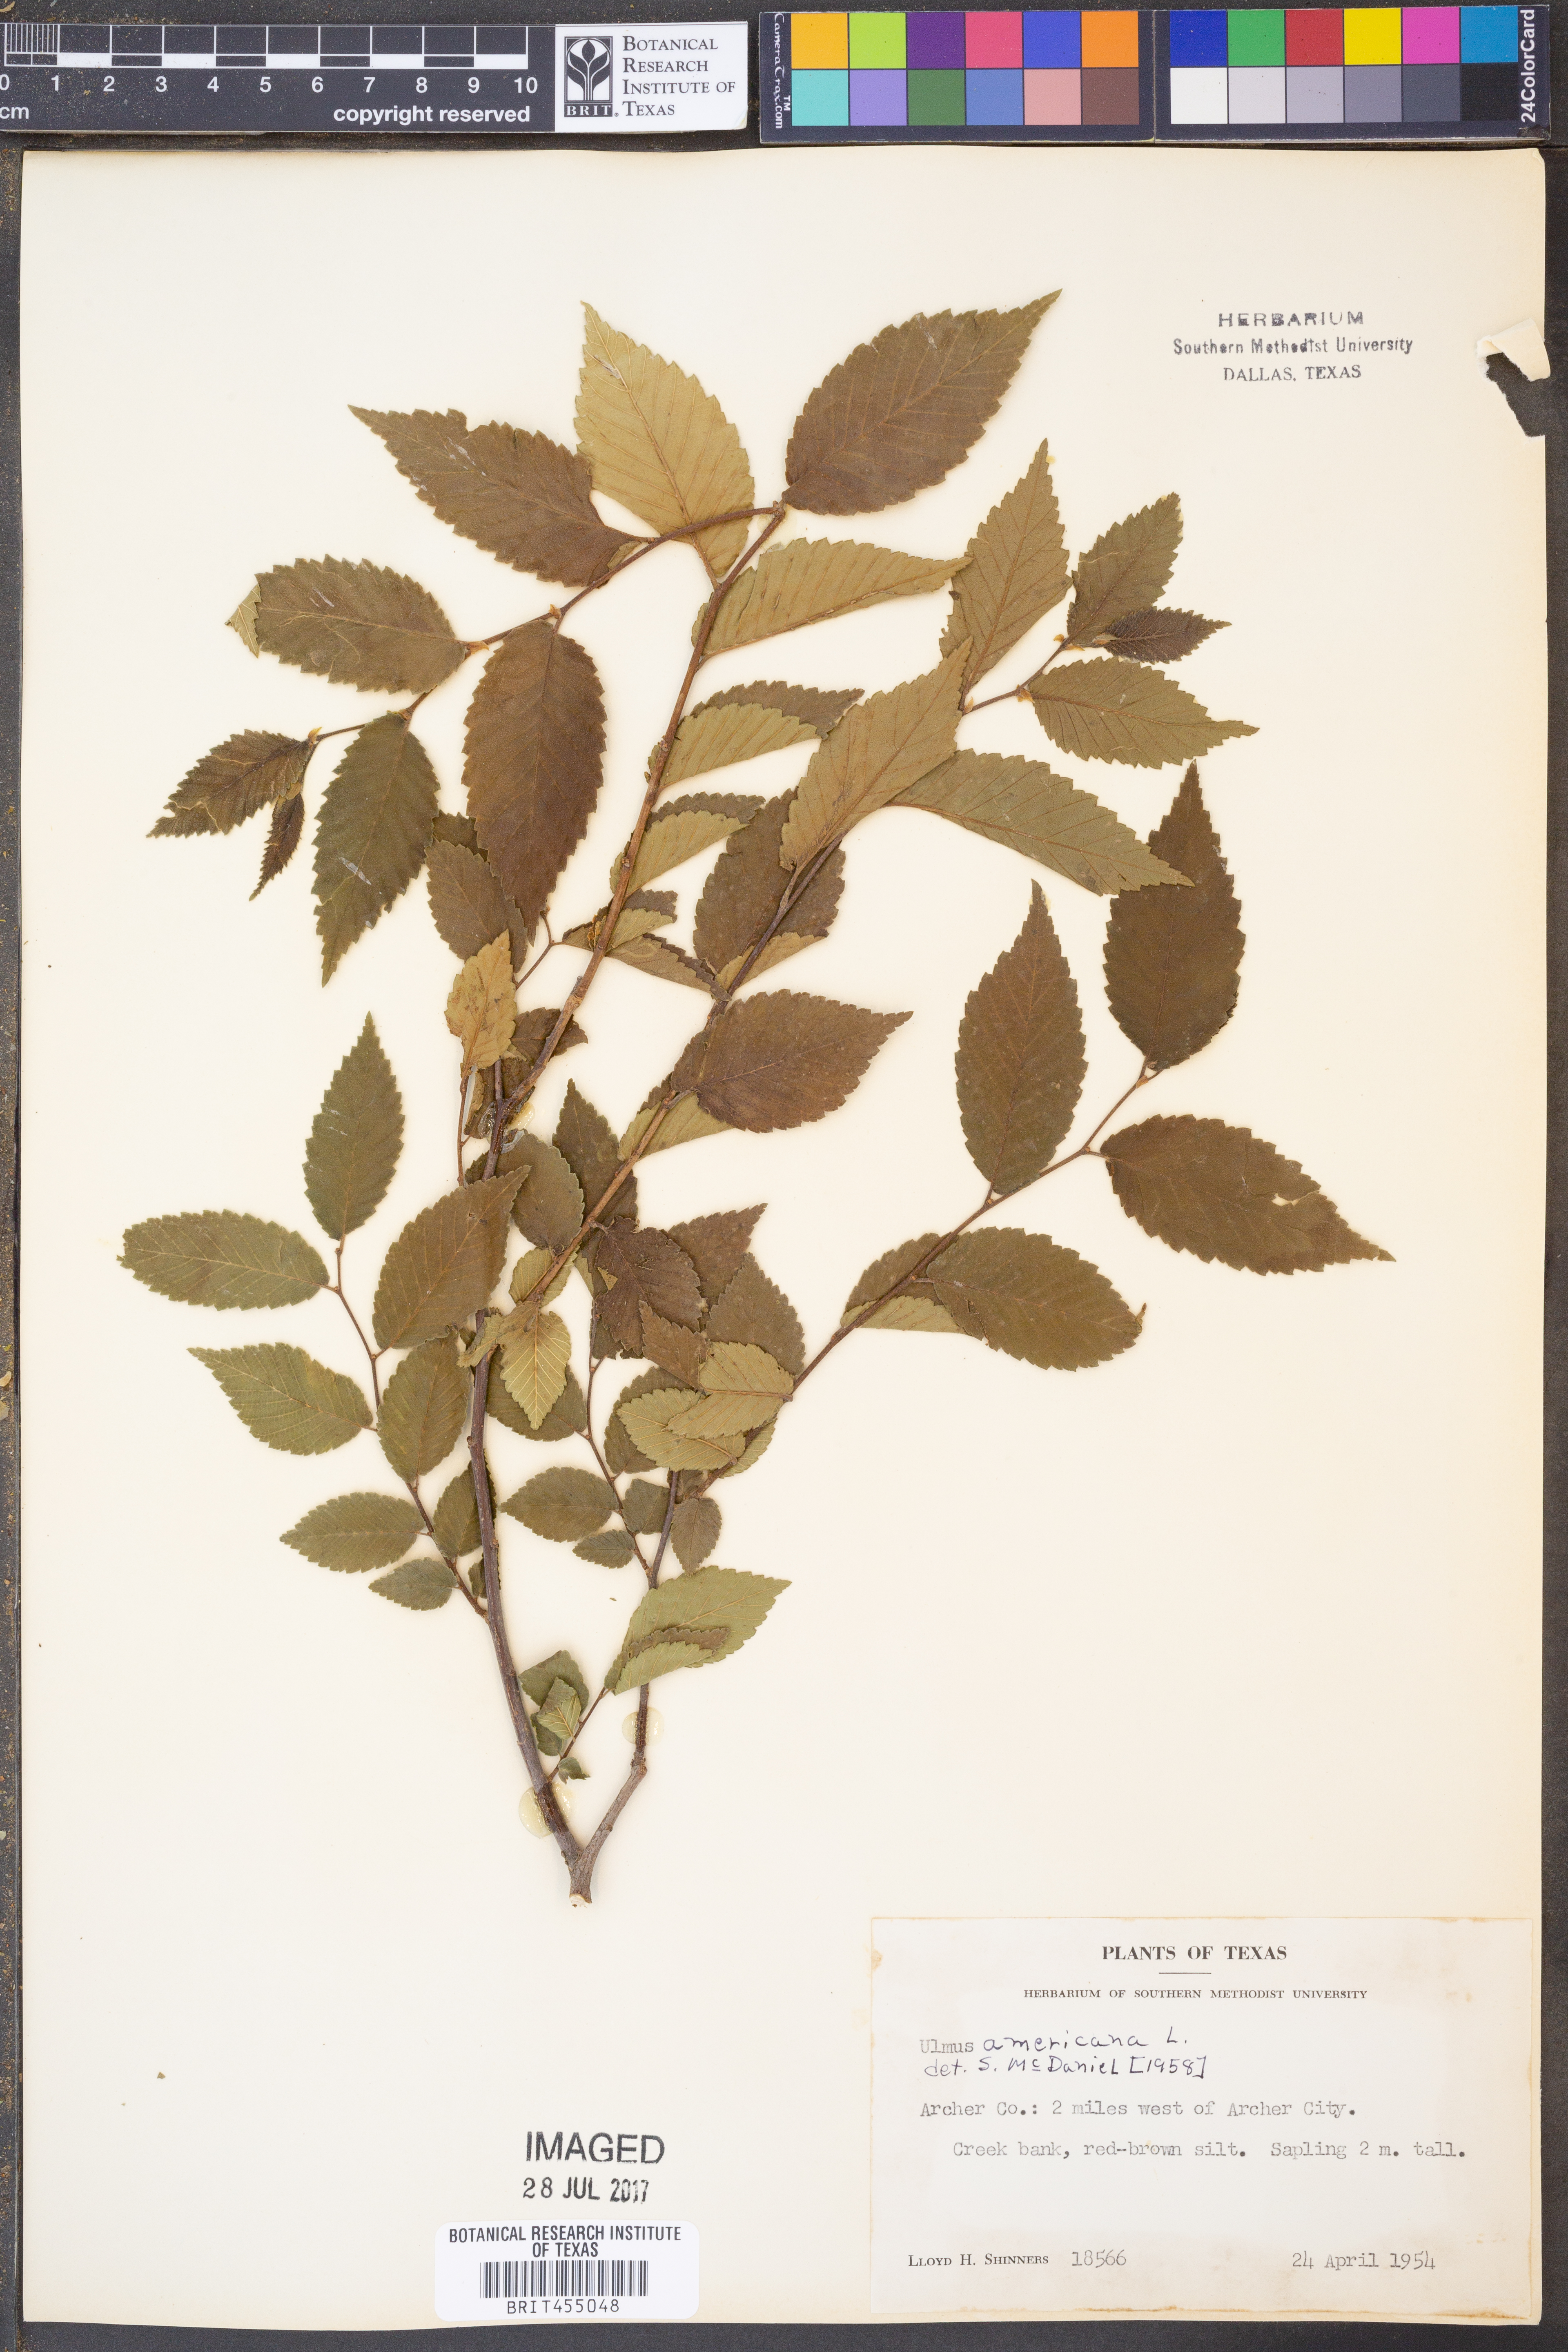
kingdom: Plantae
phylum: Tracheophyta
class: Magnoliopsida
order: Rosales
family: Ulmaceae
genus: Ulmus
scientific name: Ulmus americana
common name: American elm
